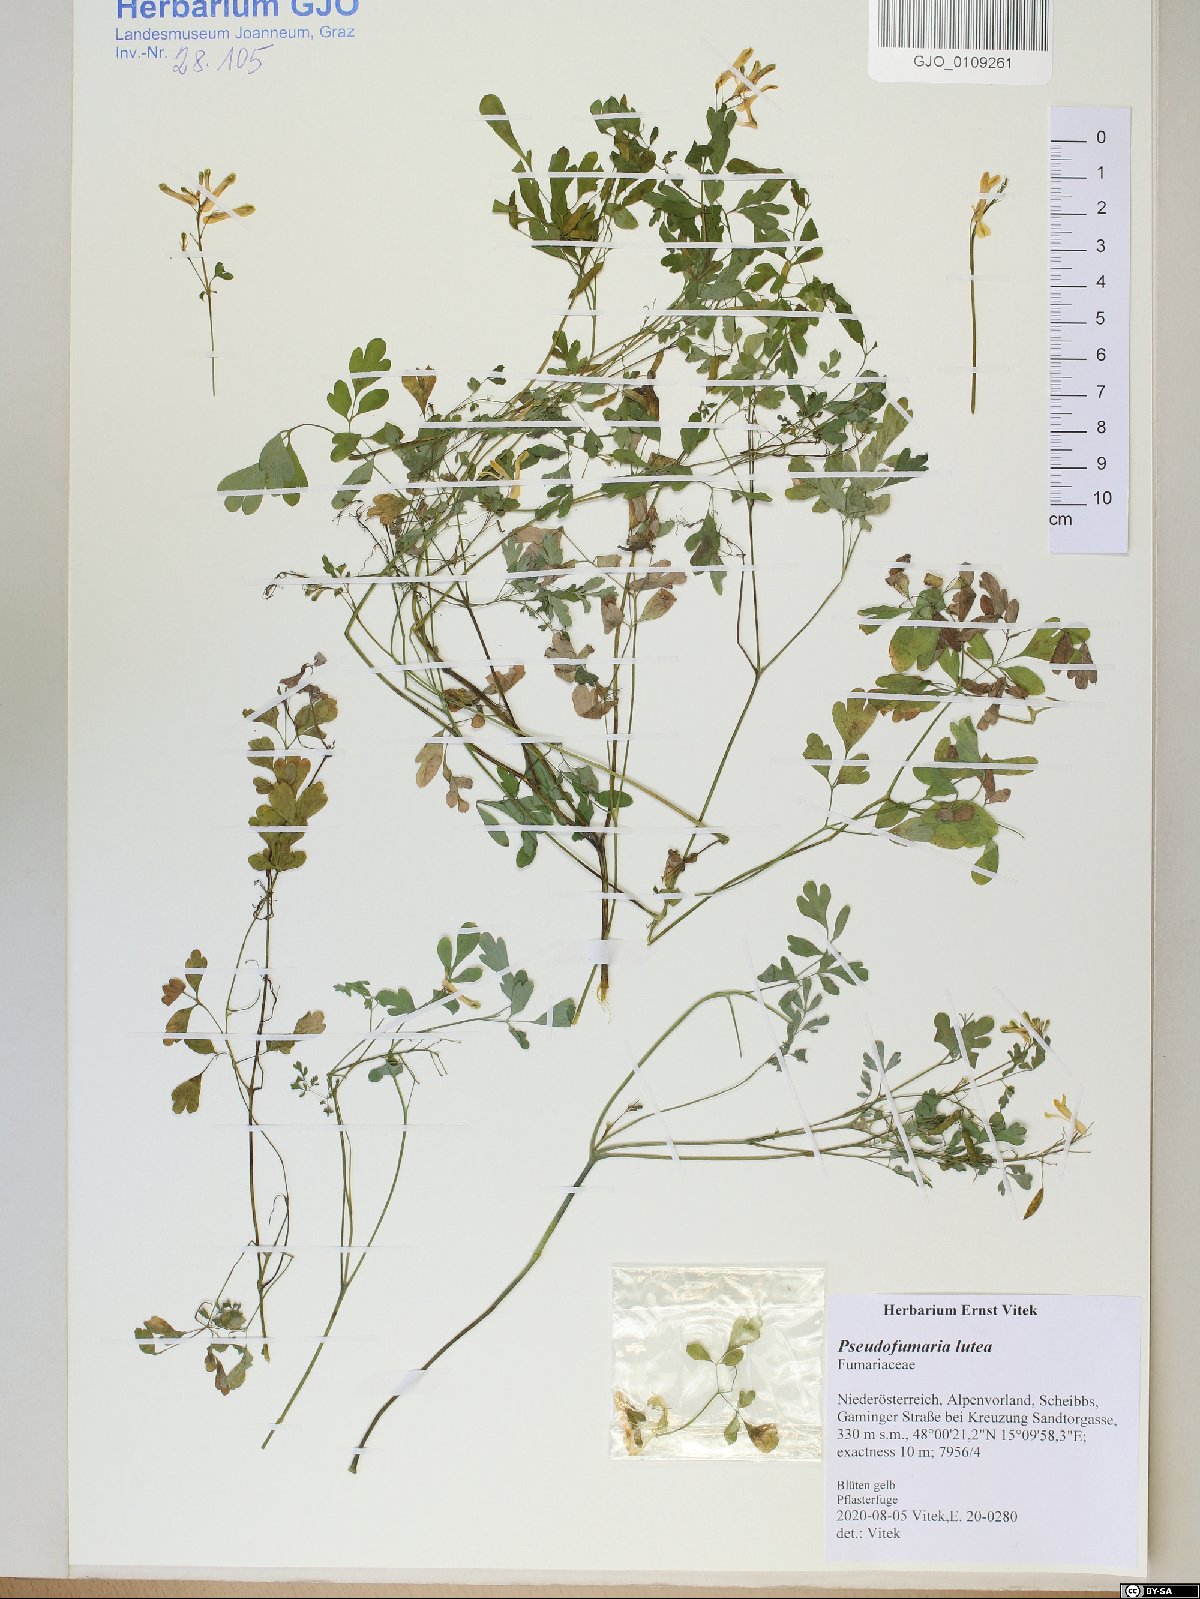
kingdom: Plantae
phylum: Tracheophyta
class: Magnoliopsida
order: Ranunculales
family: Papaveraceae
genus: Pseudofumaria
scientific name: Pseudofumaria lutea
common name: Yellow corydalis
